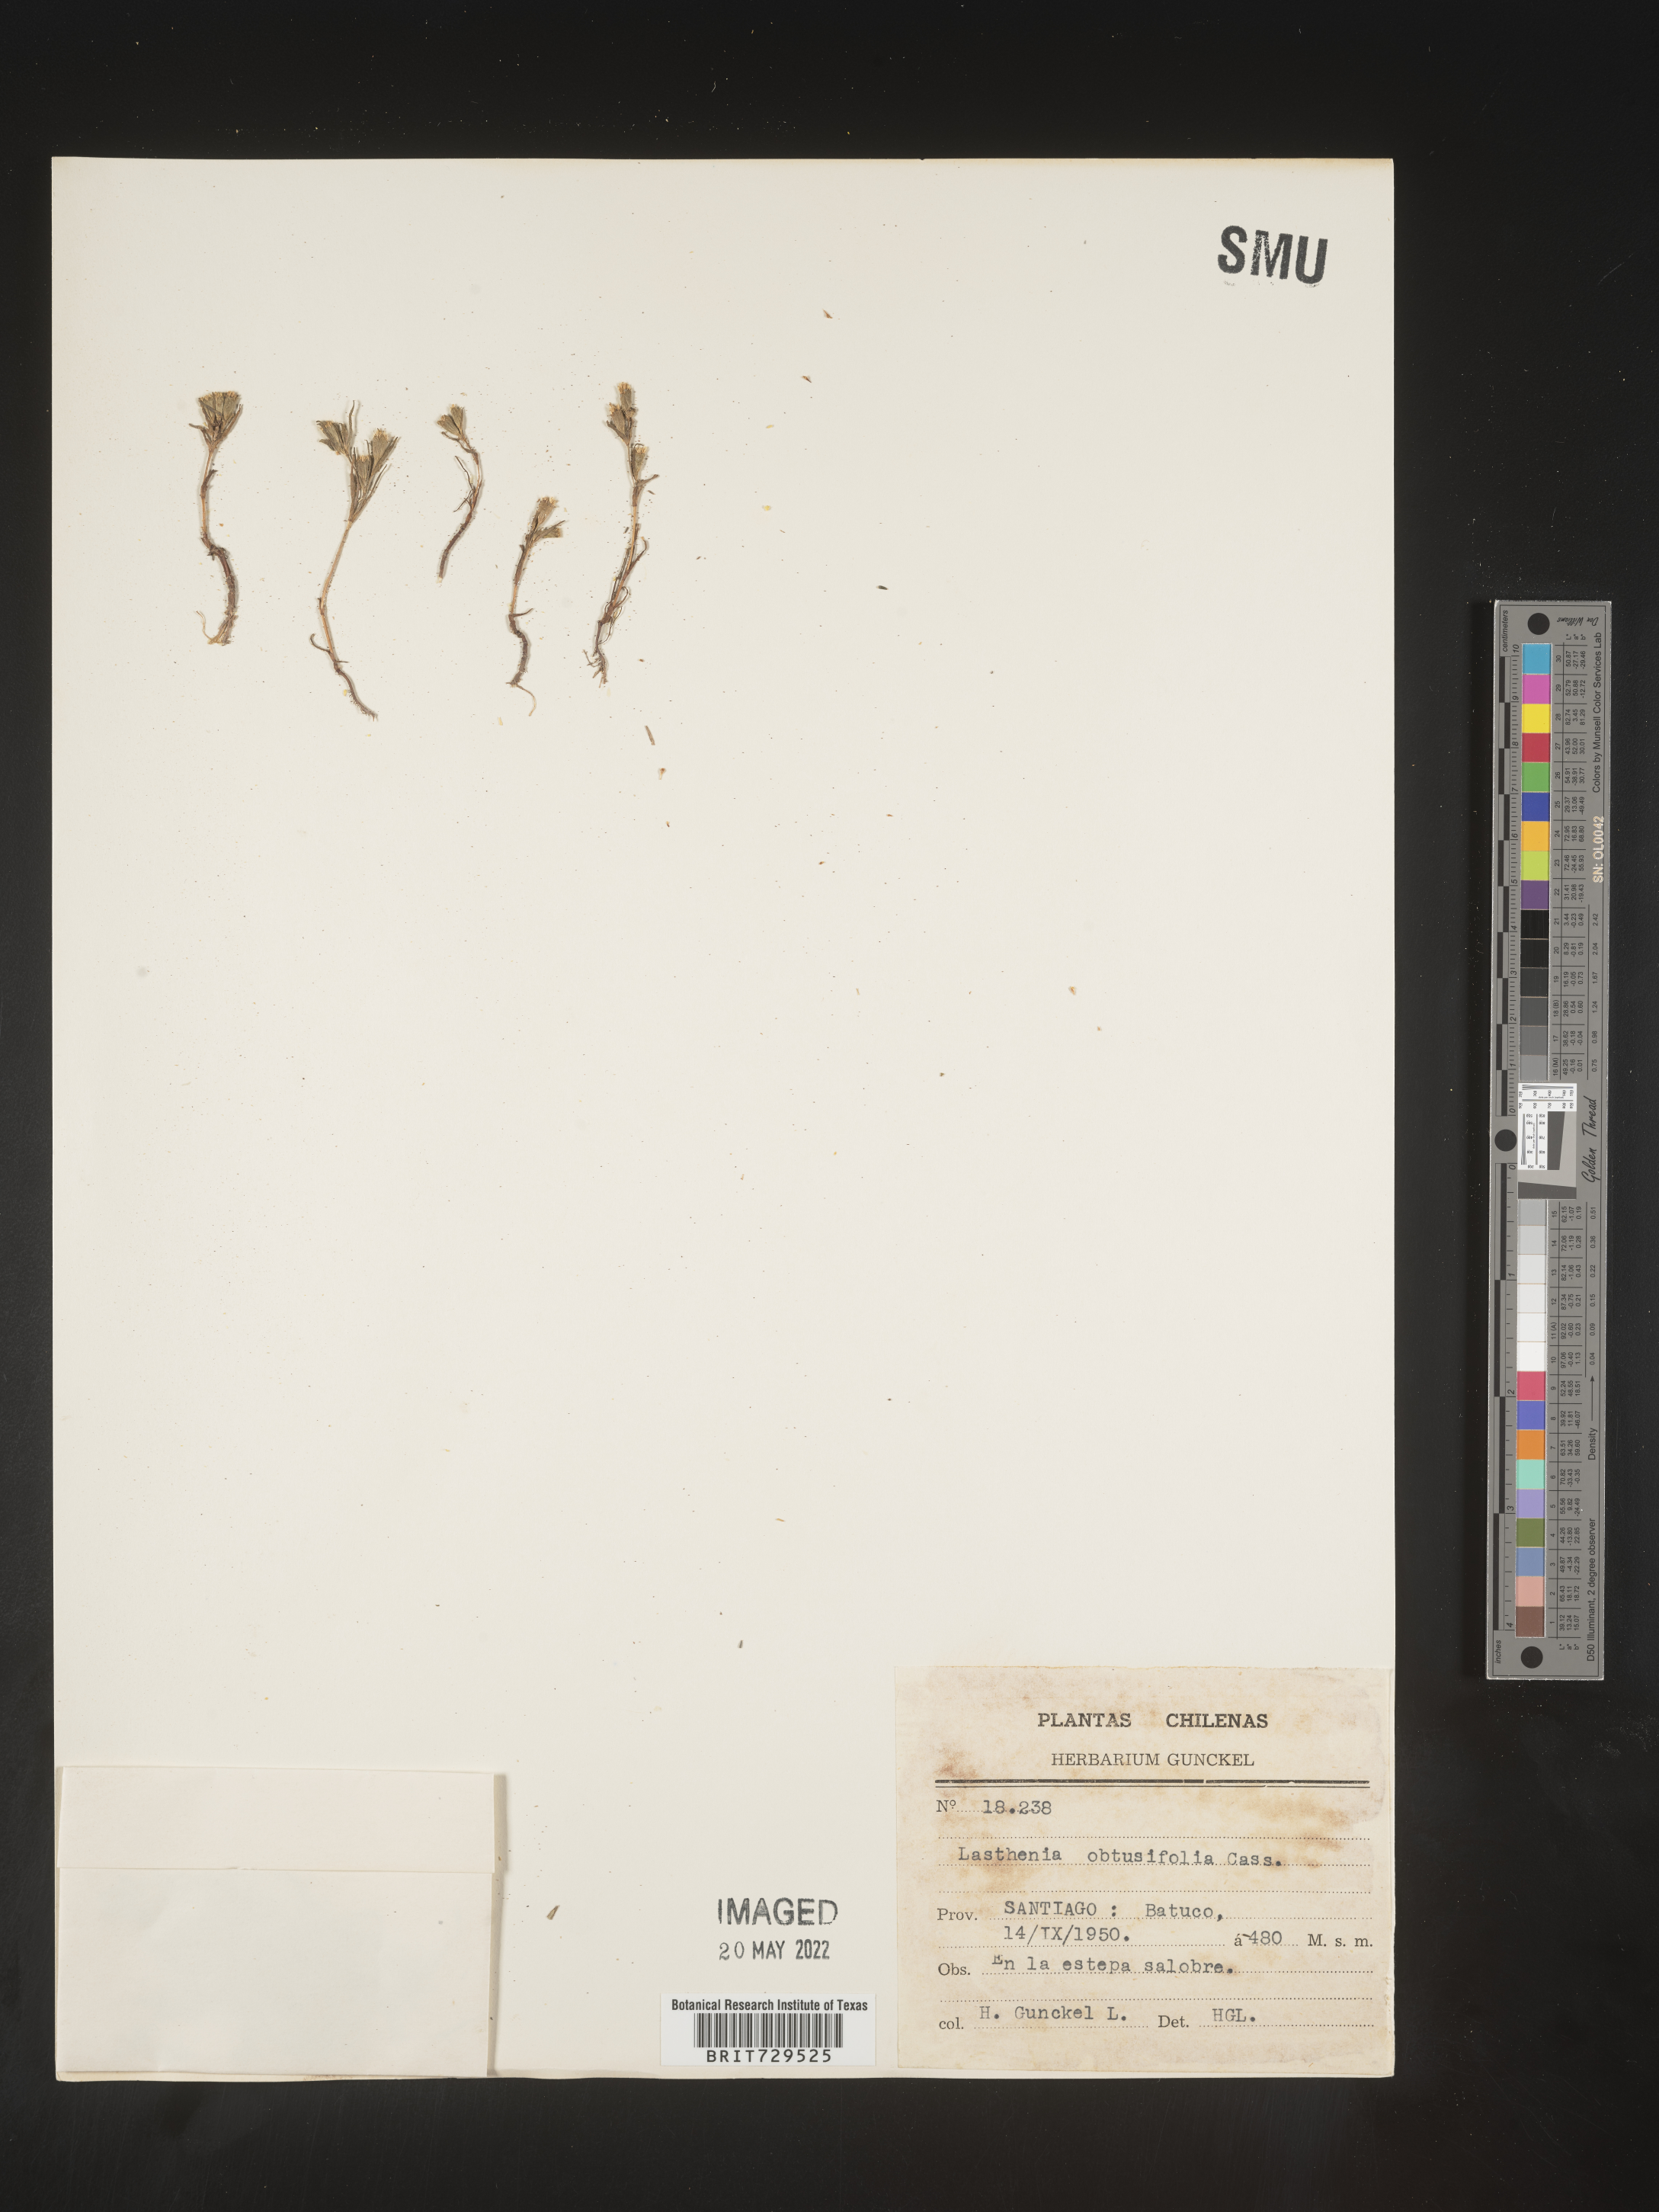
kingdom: Plantae
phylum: Tracheophyta
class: Magnoliopsida
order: Asterales
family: Asteraceae
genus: Lasthenia
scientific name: Lasthenia
